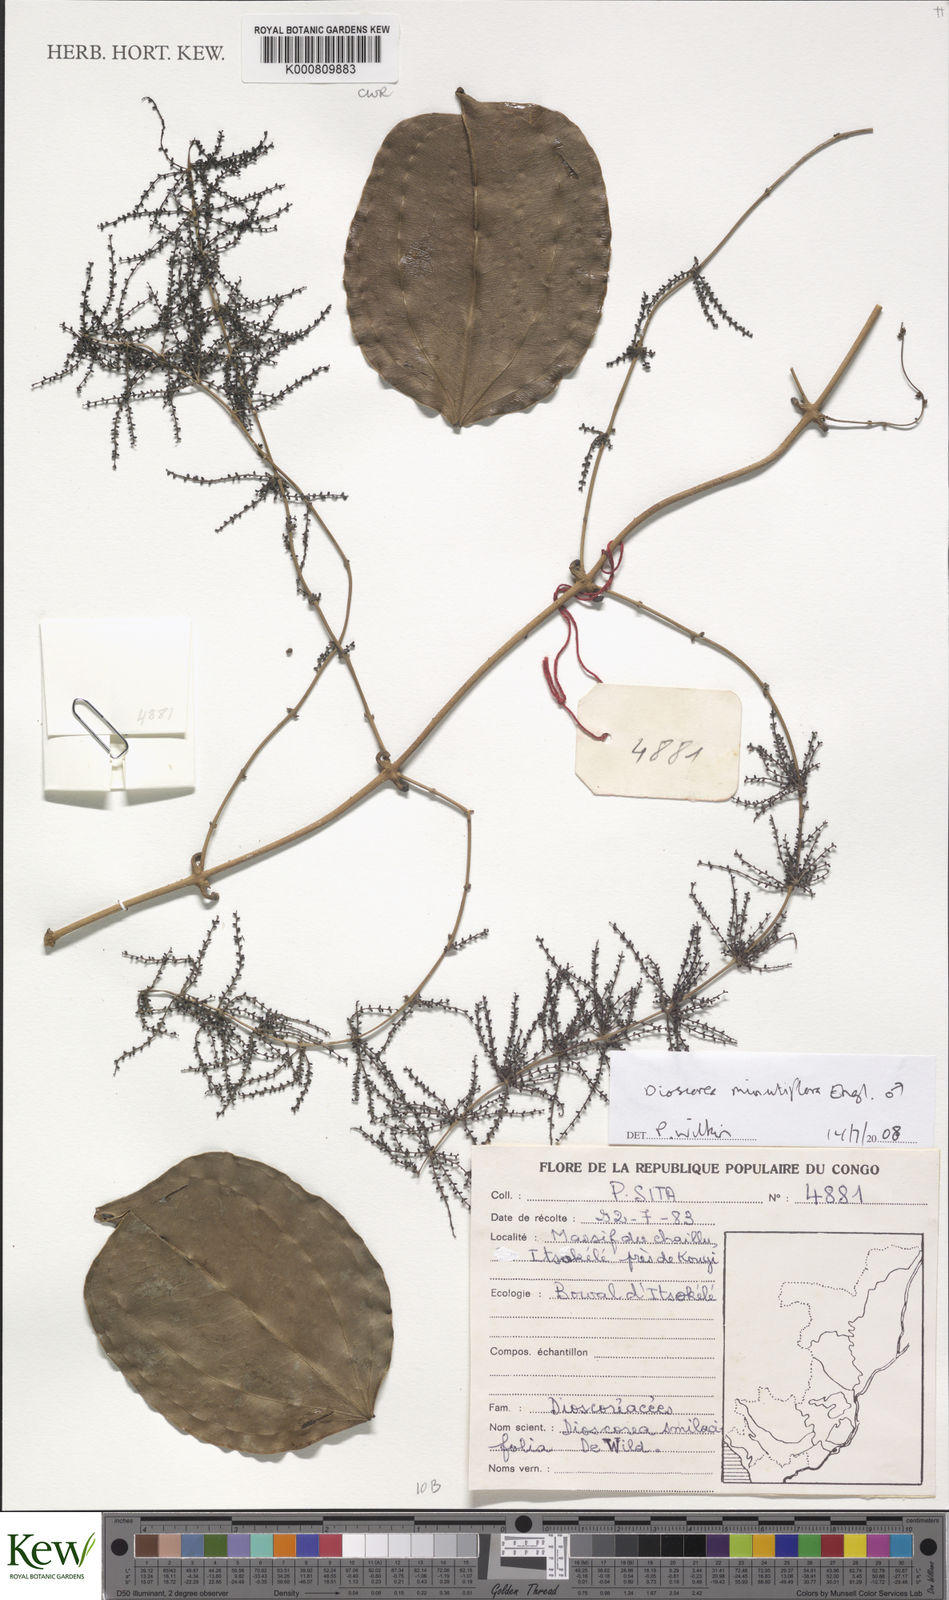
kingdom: Plantae
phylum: Tracheophyta
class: Liliopsida
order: Dioscoreales
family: Dioscoreaceae
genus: Dioscorea
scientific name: Dioscorea minutiflora
